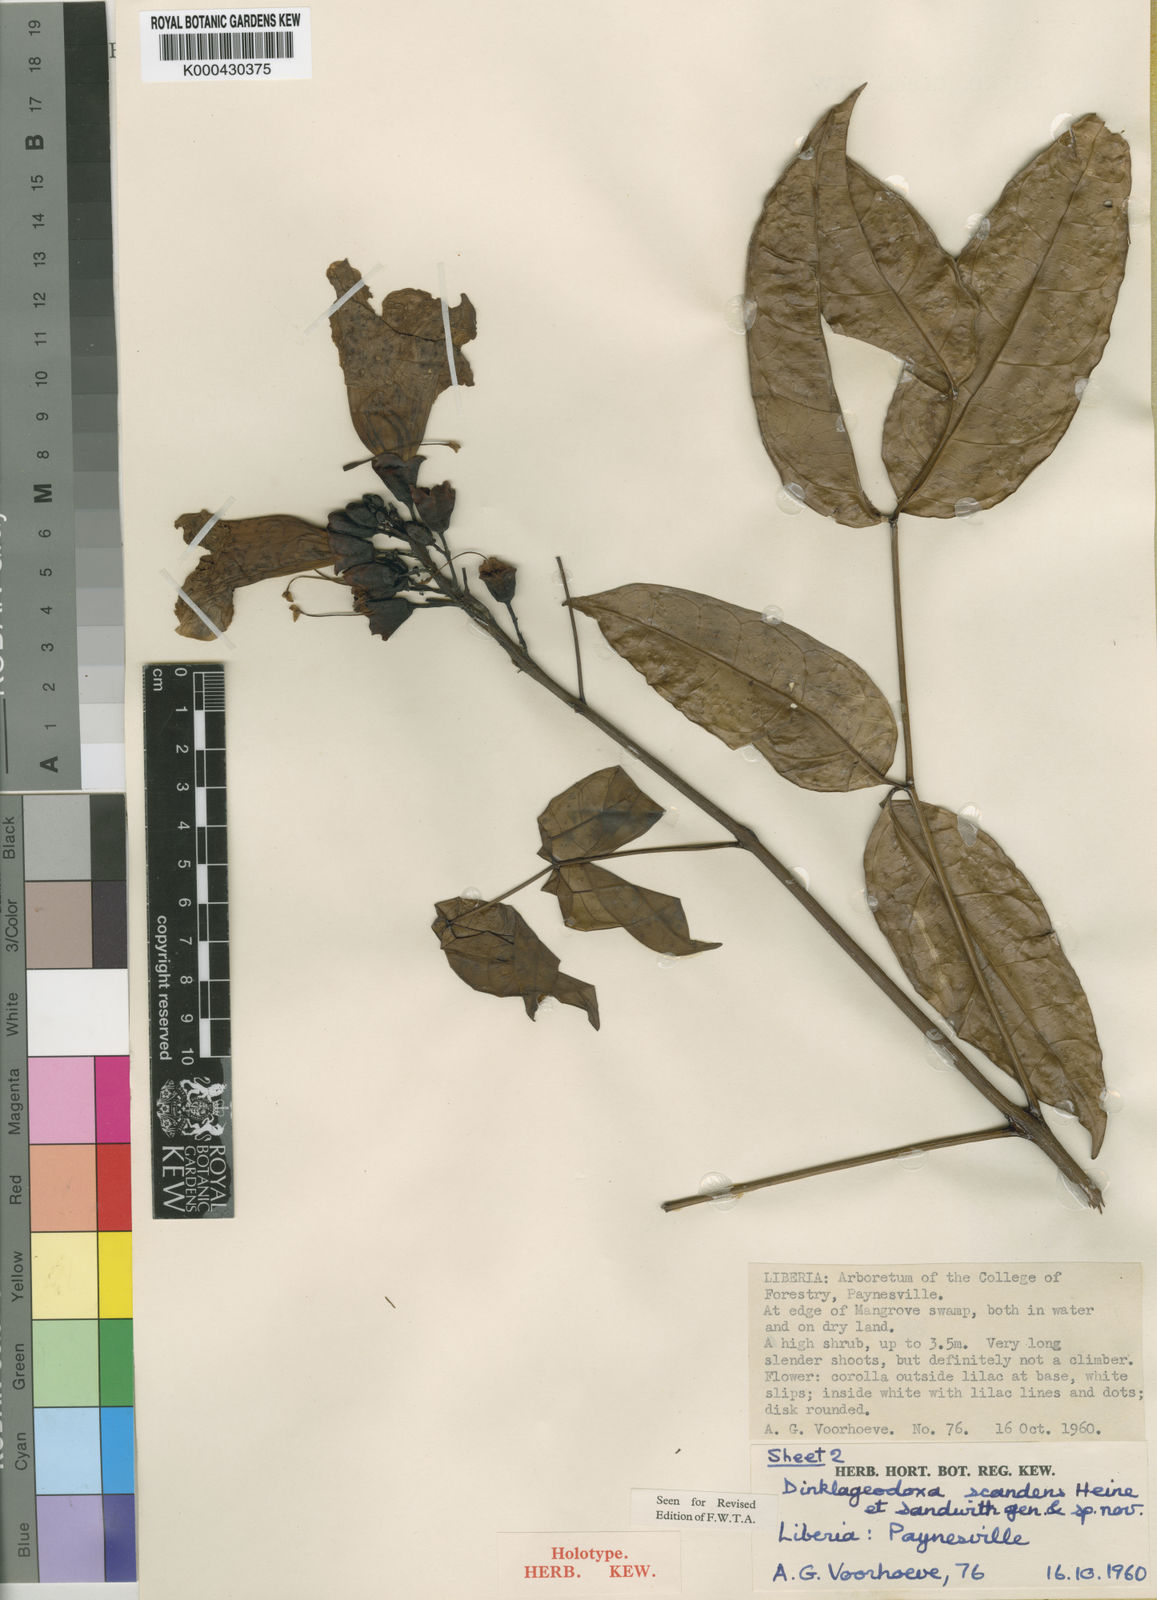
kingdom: Plantae
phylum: Tracheophyta
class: Magnoliopsida
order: Lamiales
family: Bignoniaceae
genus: Dinklageodoxa
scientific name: Dinklageodoxa scandens
